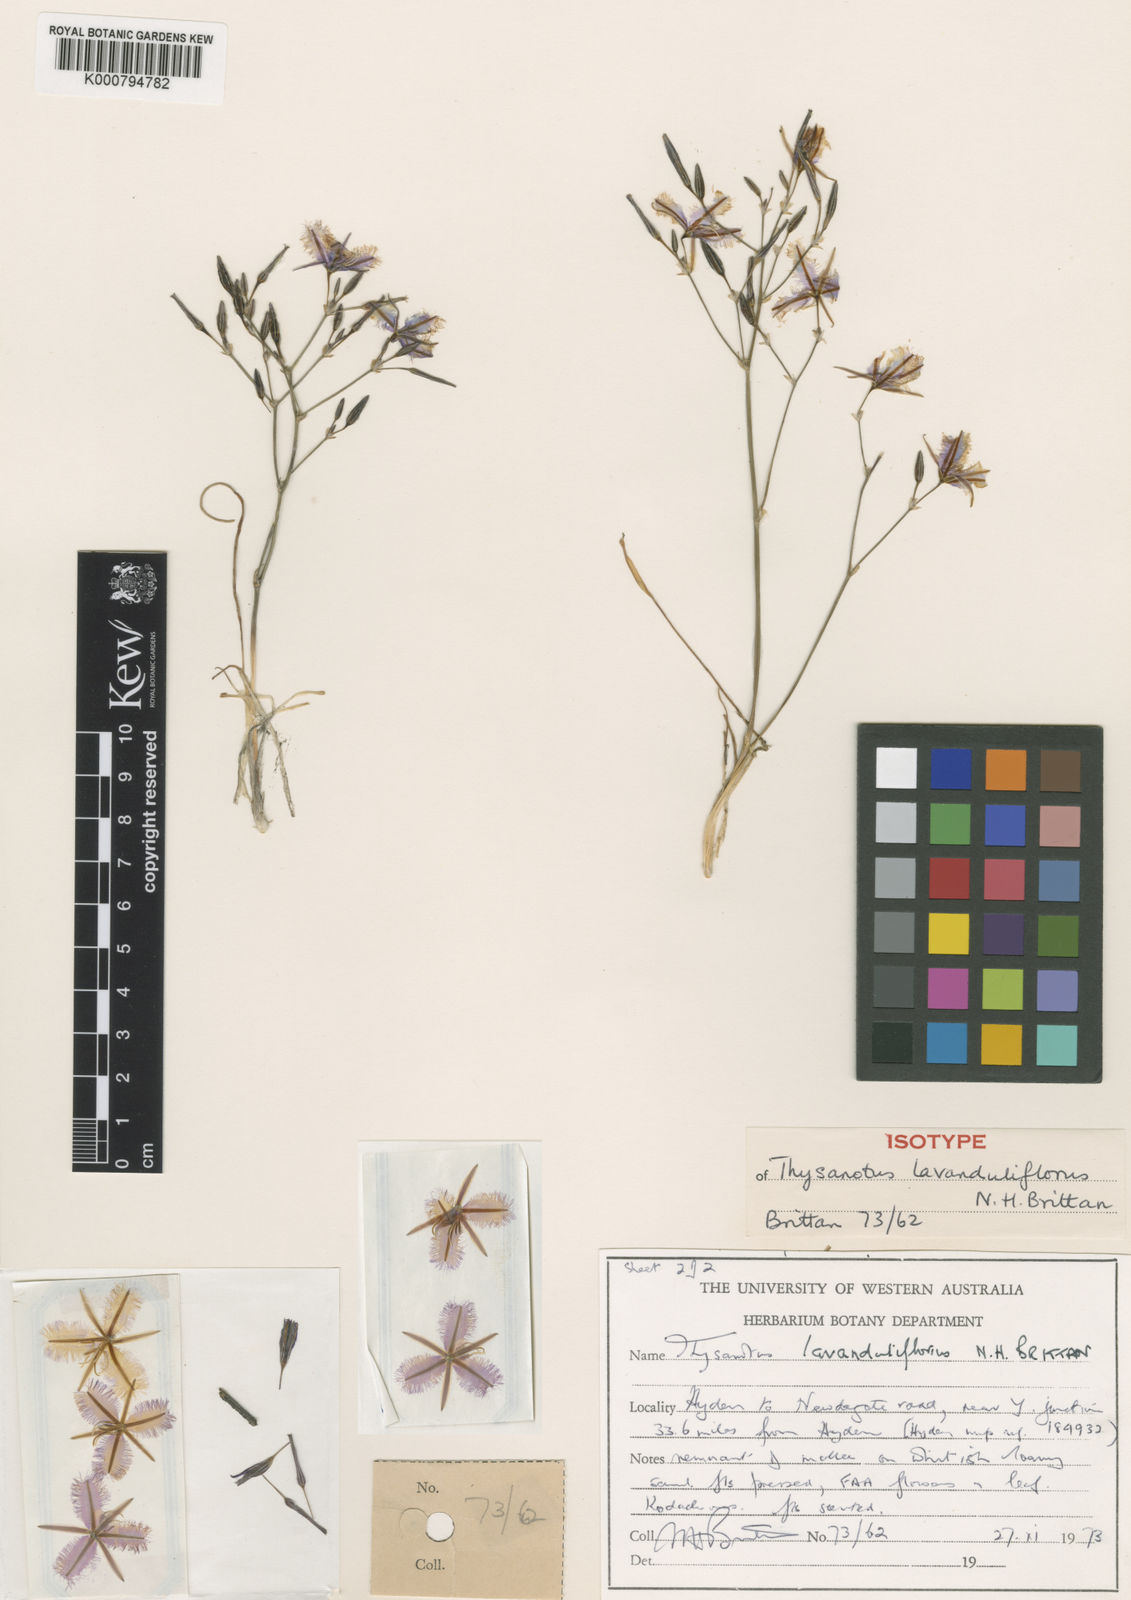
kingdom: Plantae
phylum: Tracheophyta
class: Liliopsida
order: Asparagales
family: Asparagaceae
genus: Thysanotus
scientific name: Thysanotus lavanduliflorus
